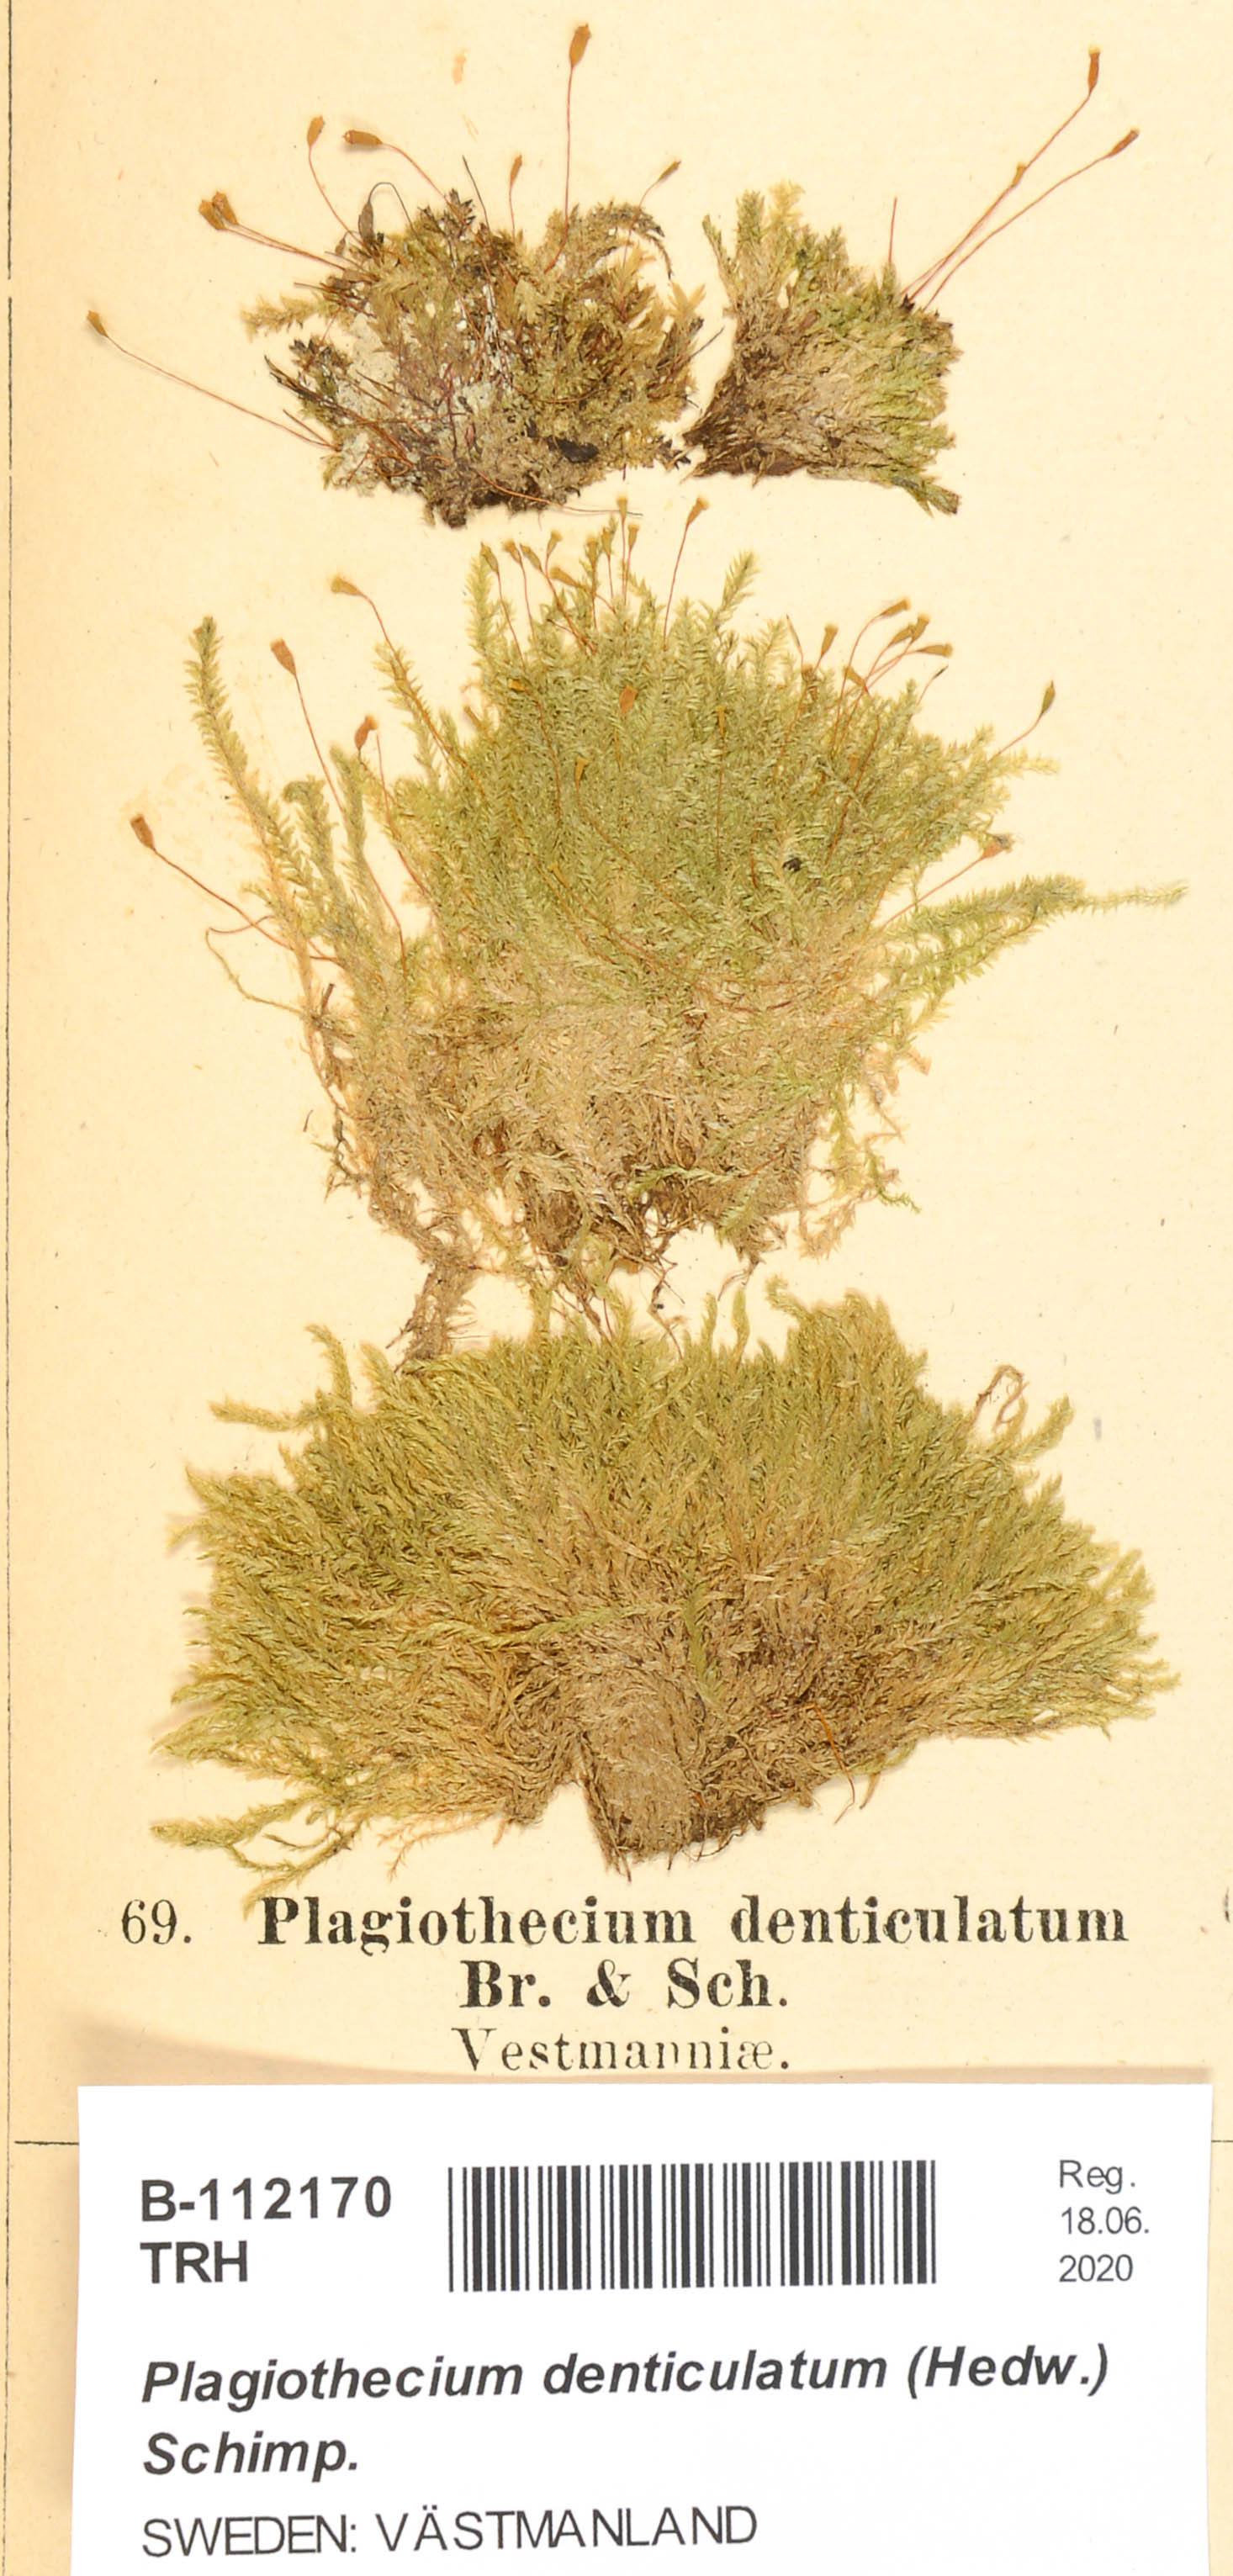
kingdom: Plantae
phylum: Bryophyta
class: Bryopsida
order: Hypnales
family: Plagiotheciaceae
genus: Plagiothecium
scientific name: Plagiothecium denticulatum
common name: Dented silk moss
